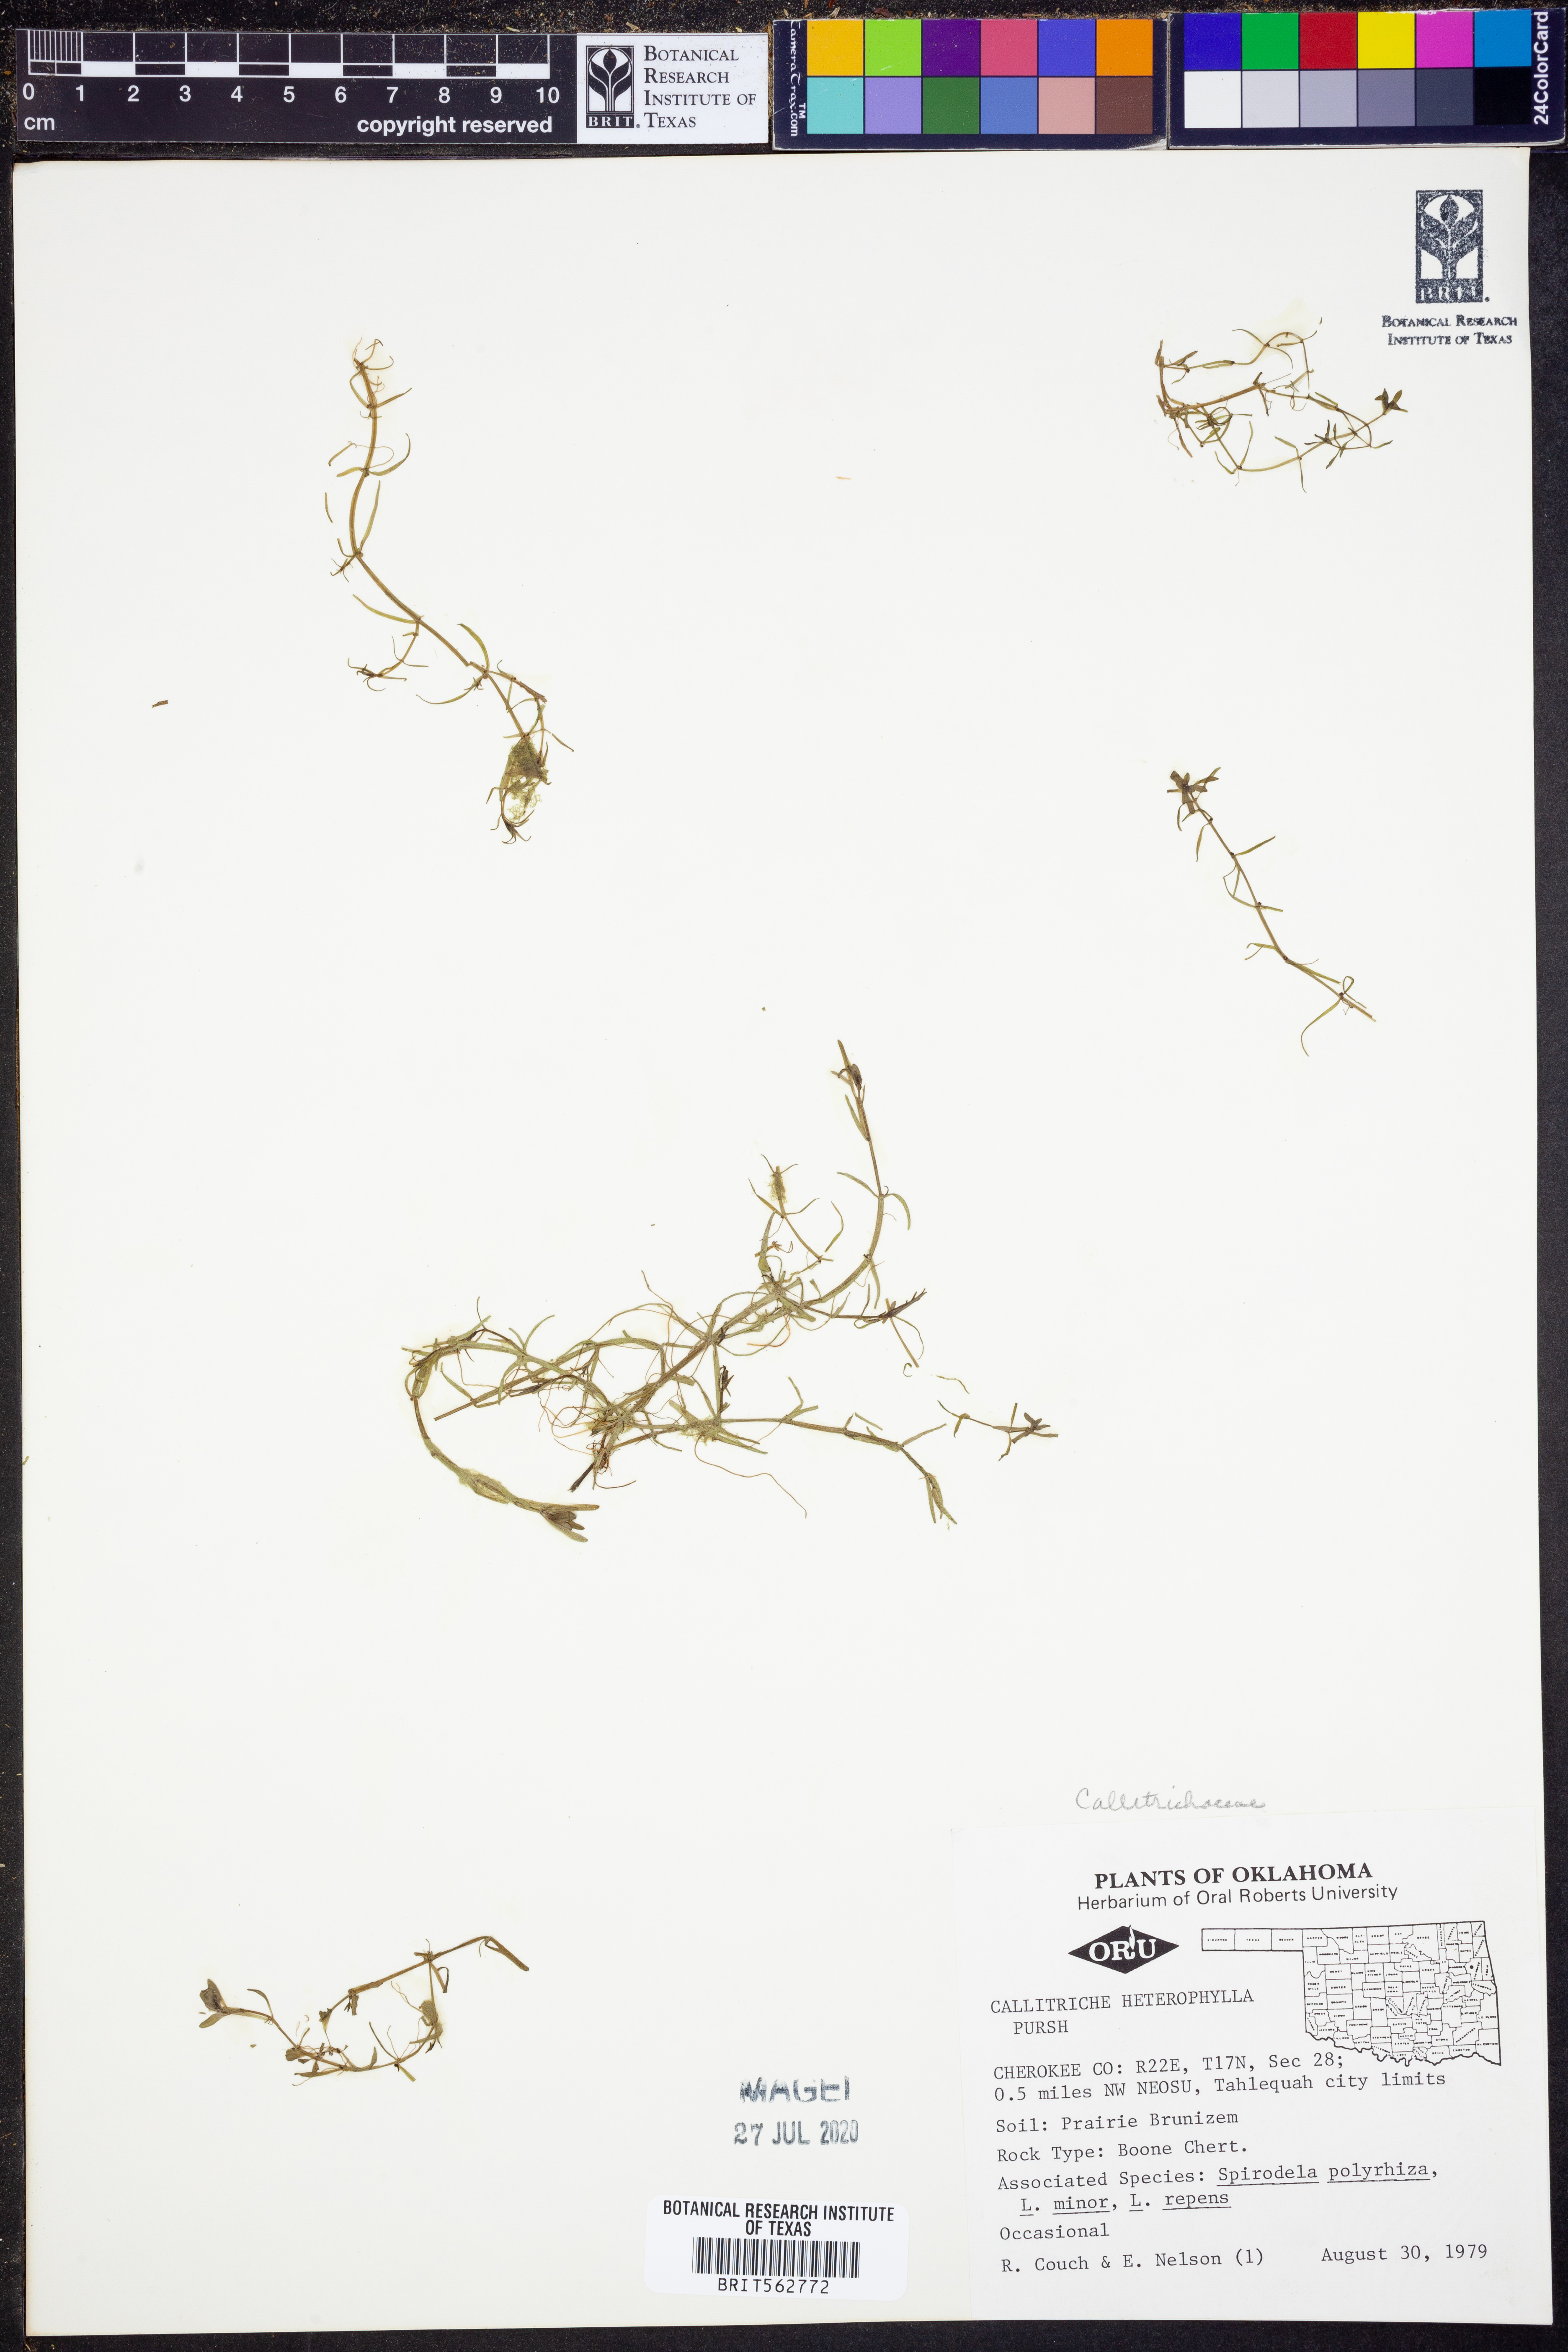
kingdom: Plantae
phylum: Tracheophyta
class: Magnoliopsida
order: Lamiales
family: Plantaginaceae
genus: Callitriche
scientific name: Callitriche heterophylla
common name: Two-headed water-starwort
